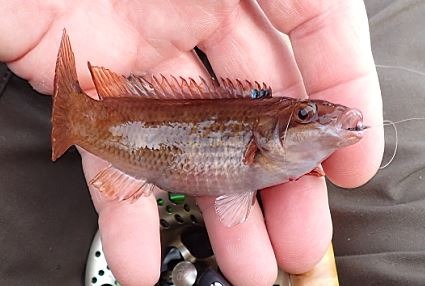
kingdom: Animalia
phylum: Chordata
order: Perciformes
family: Labridae
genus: Ctenolabrus
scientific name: Ctenolabrus rupestris
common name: Havkarusse
